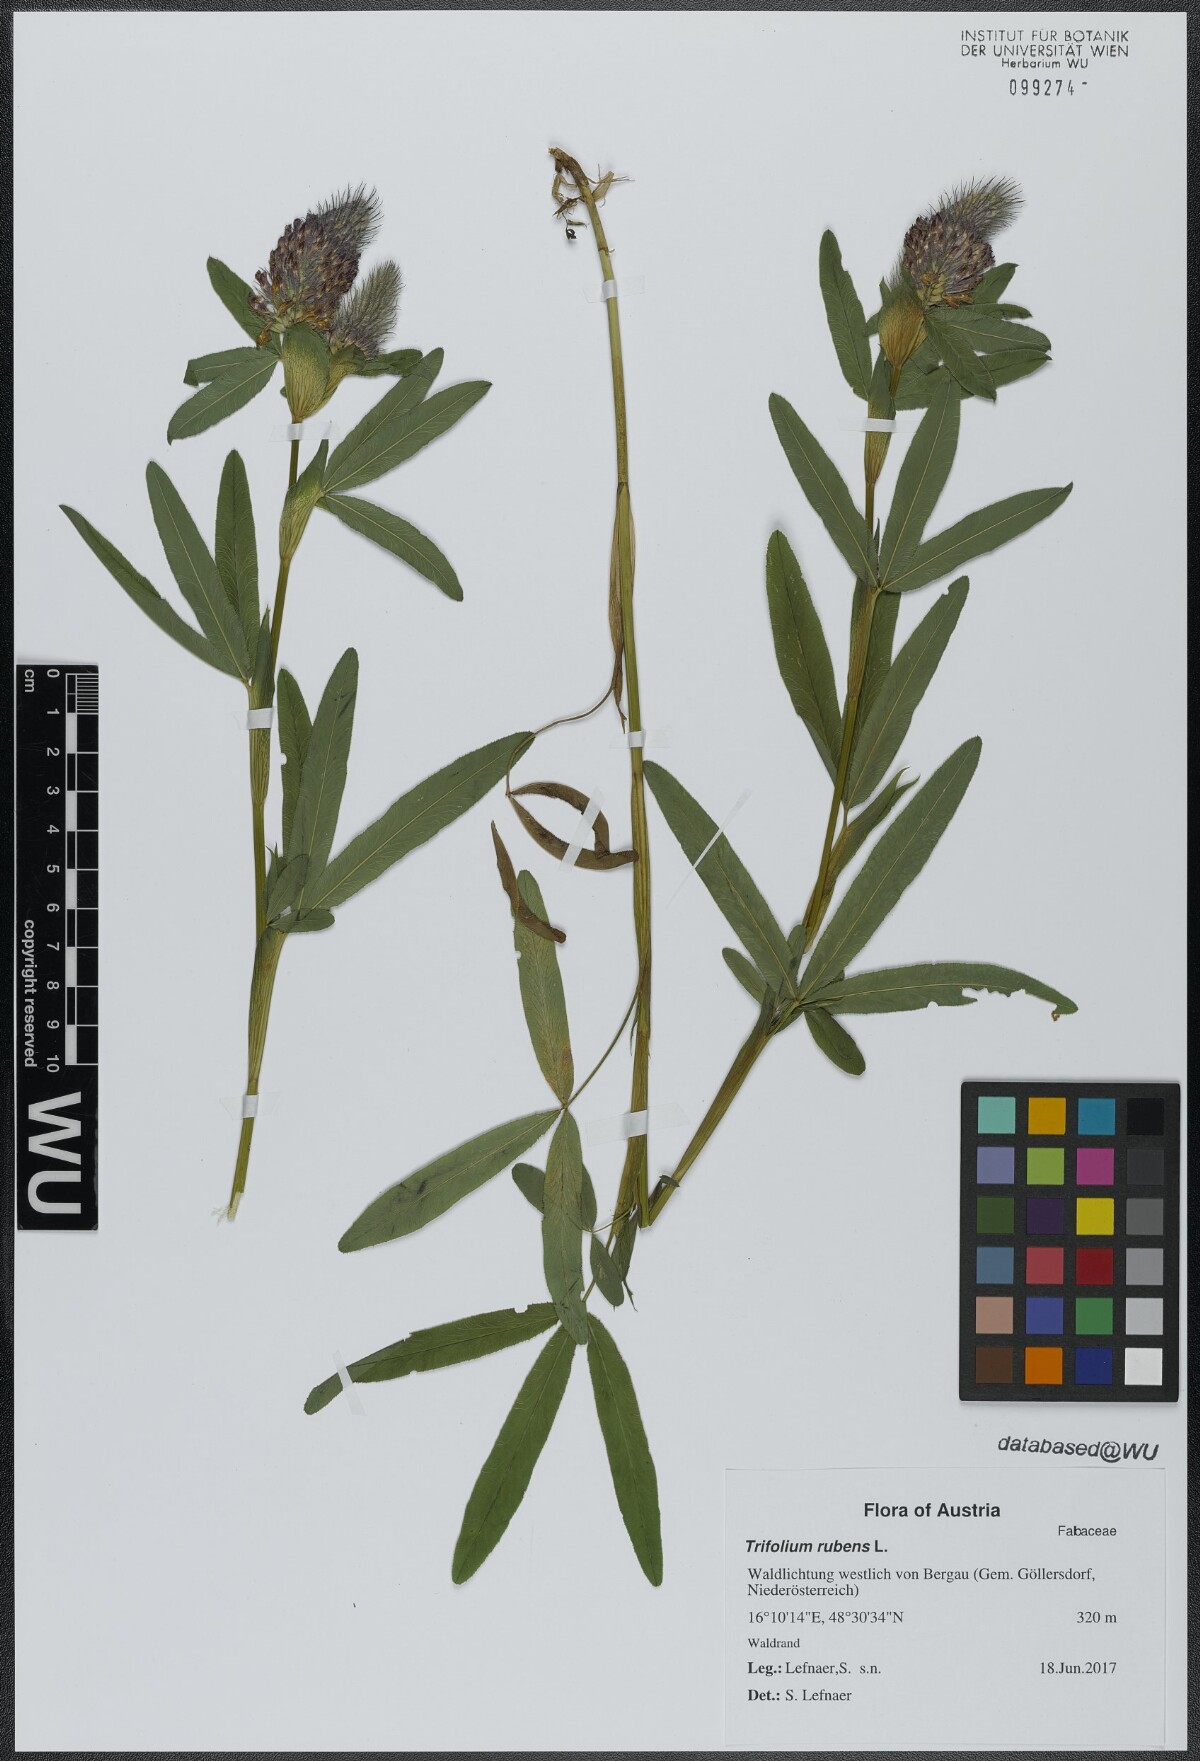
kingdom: Plantae
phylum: Tracheophyta
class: Magnoliopsida
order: Fabales
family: Fabaceae
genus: Trifolium
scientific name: Trifolium rubens
